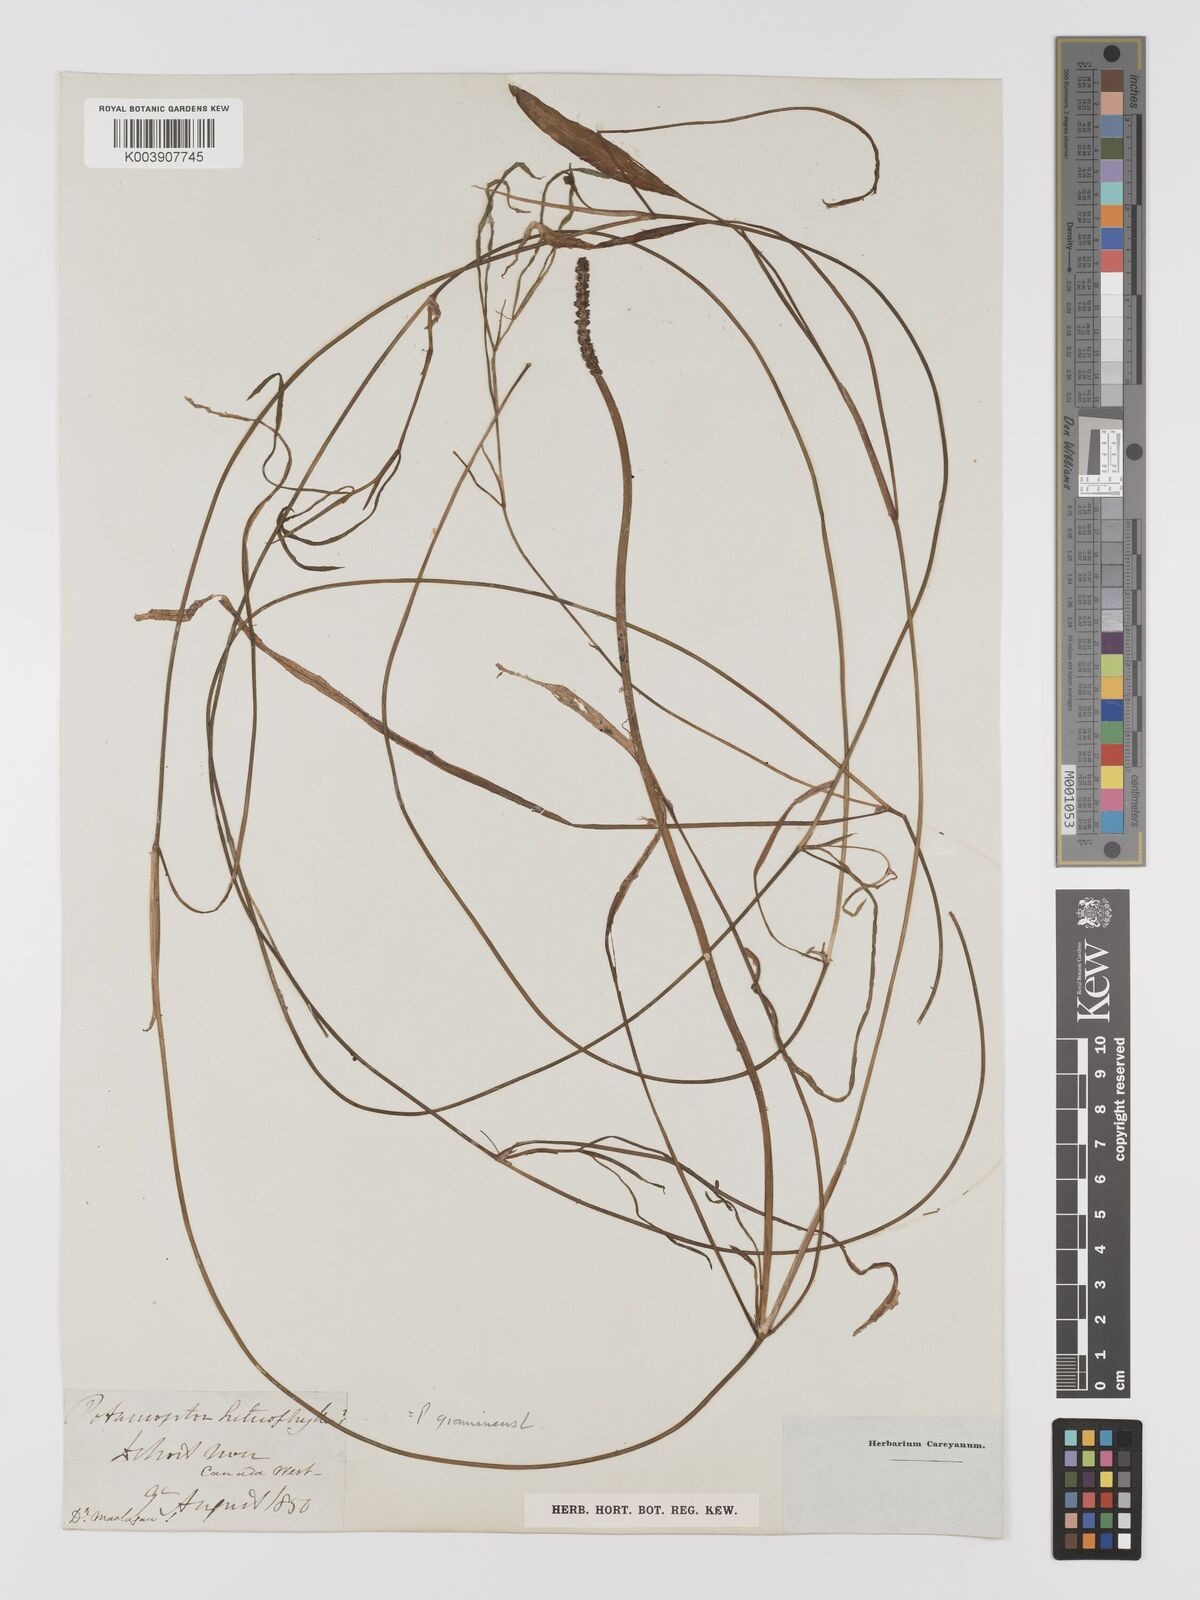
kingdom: Plantae
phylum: Tracheophyta
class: Liliopsida
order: Alismatales
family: Potamogetonaceae
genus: Potamogeton
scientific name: Potamogeton gramineus
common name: Various-leaved pondweed
